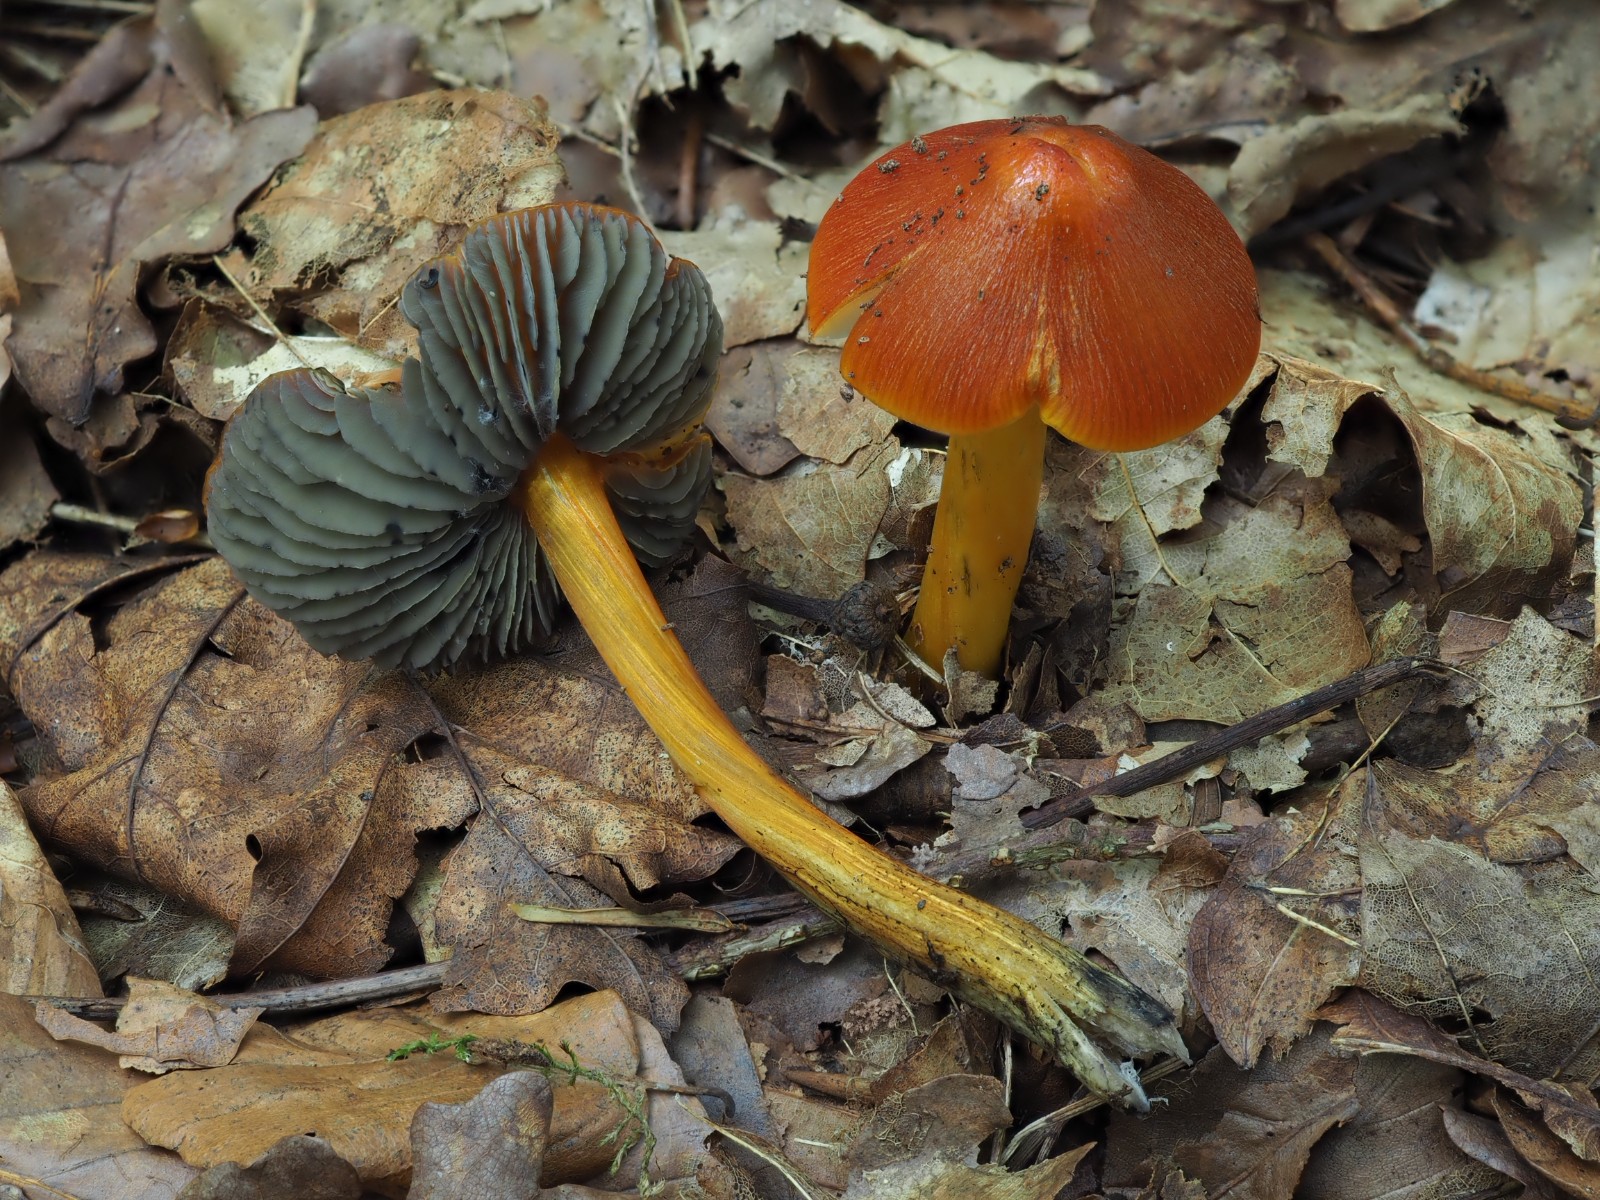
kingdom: Fungi
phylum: Basidiomycota
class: Agaricomycetes
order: Agaricales
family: Hygrophoraceae
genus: Hygrocybe
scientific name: Hygrocybe conica
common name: kegle-vokshat
